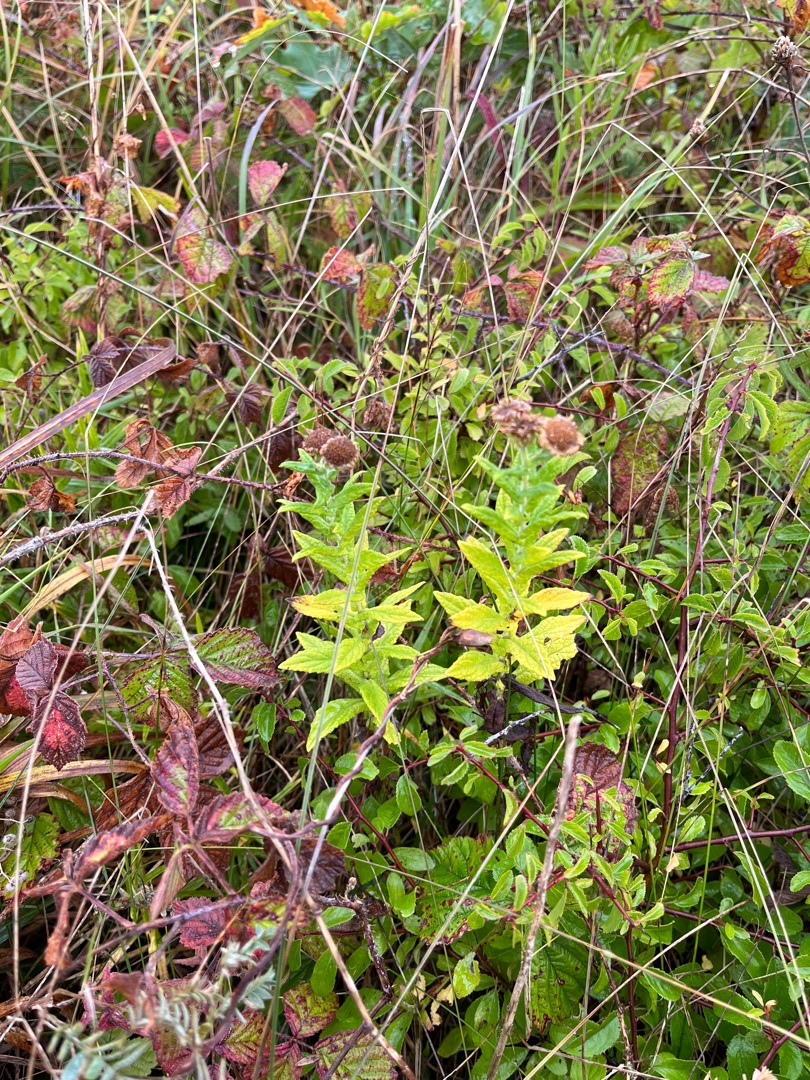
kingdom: Plantae
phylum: Tracheophyta
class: Magnoliopsida
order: Asterales
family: Asteraceae
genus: Pulicaria
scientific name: Pulicaria dysenterica
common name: Strand-loppeurt
